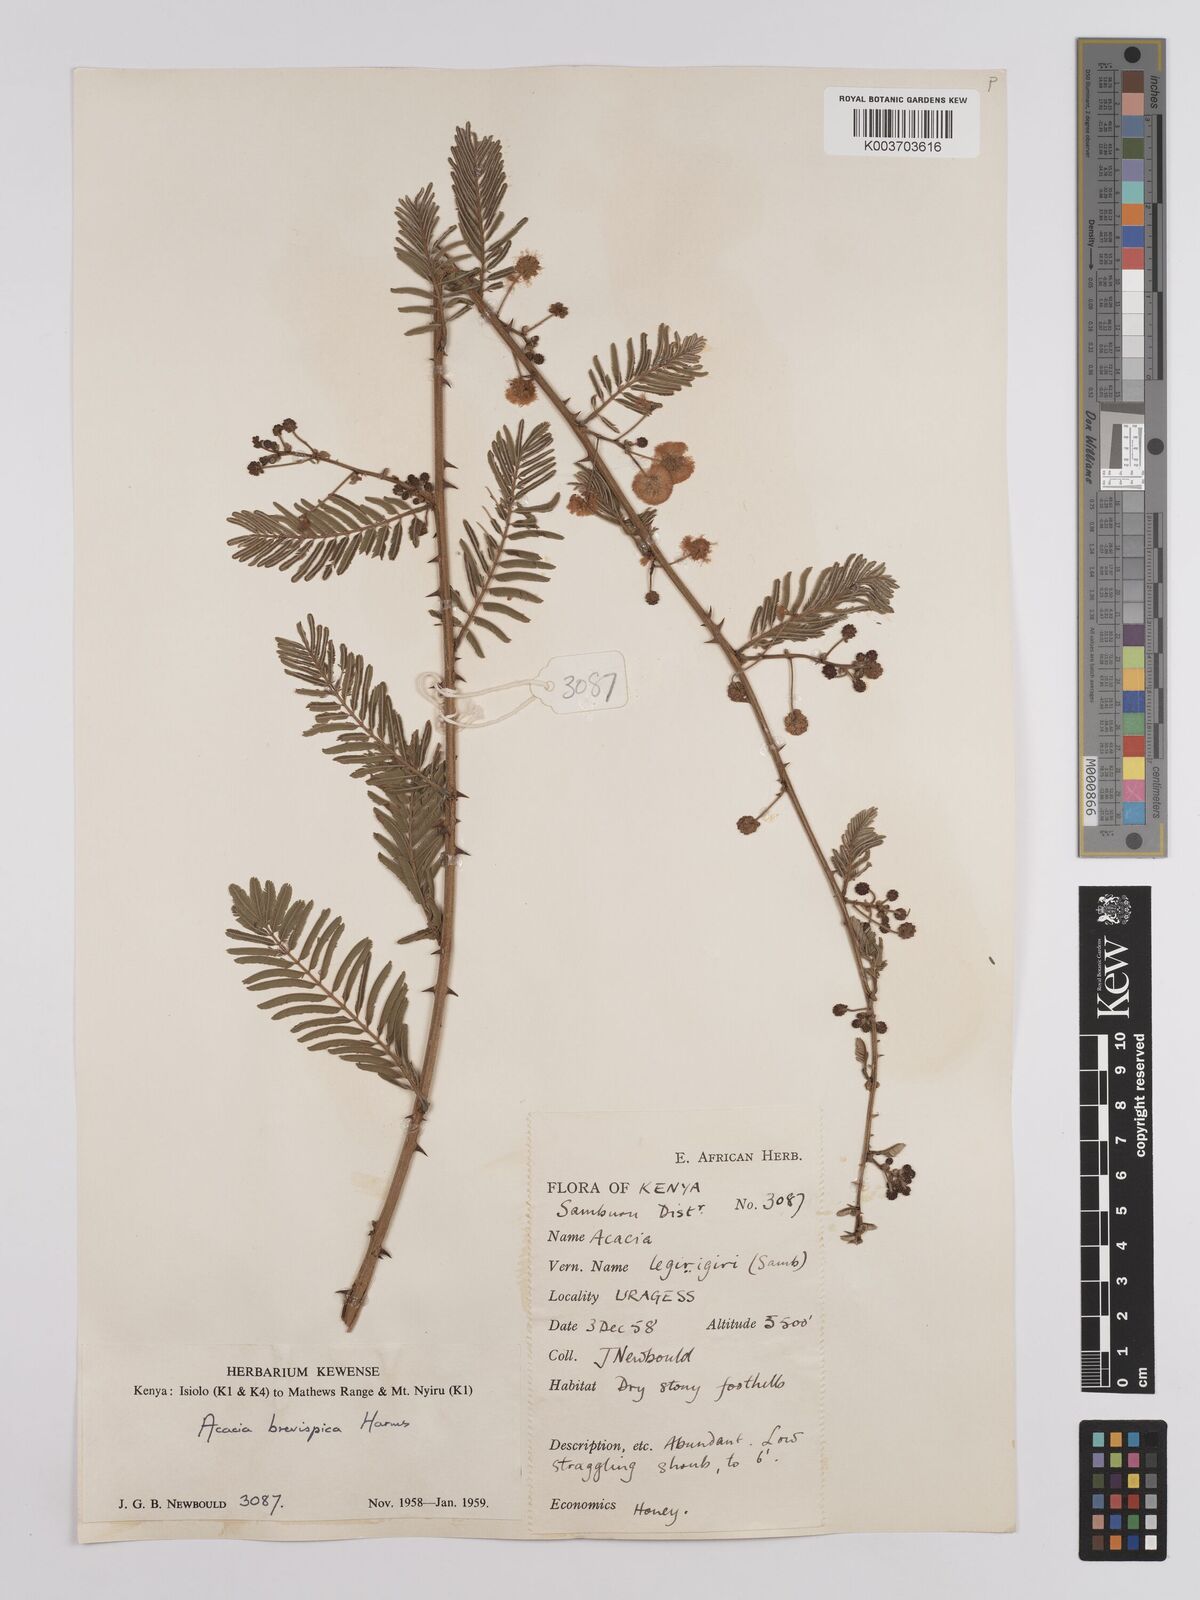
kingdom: Plantae
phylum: Tracheophyta
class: Magnoliopsida
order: Fabales
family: Fabaceae
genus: Senegalia
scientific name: Senegalia brevispica
